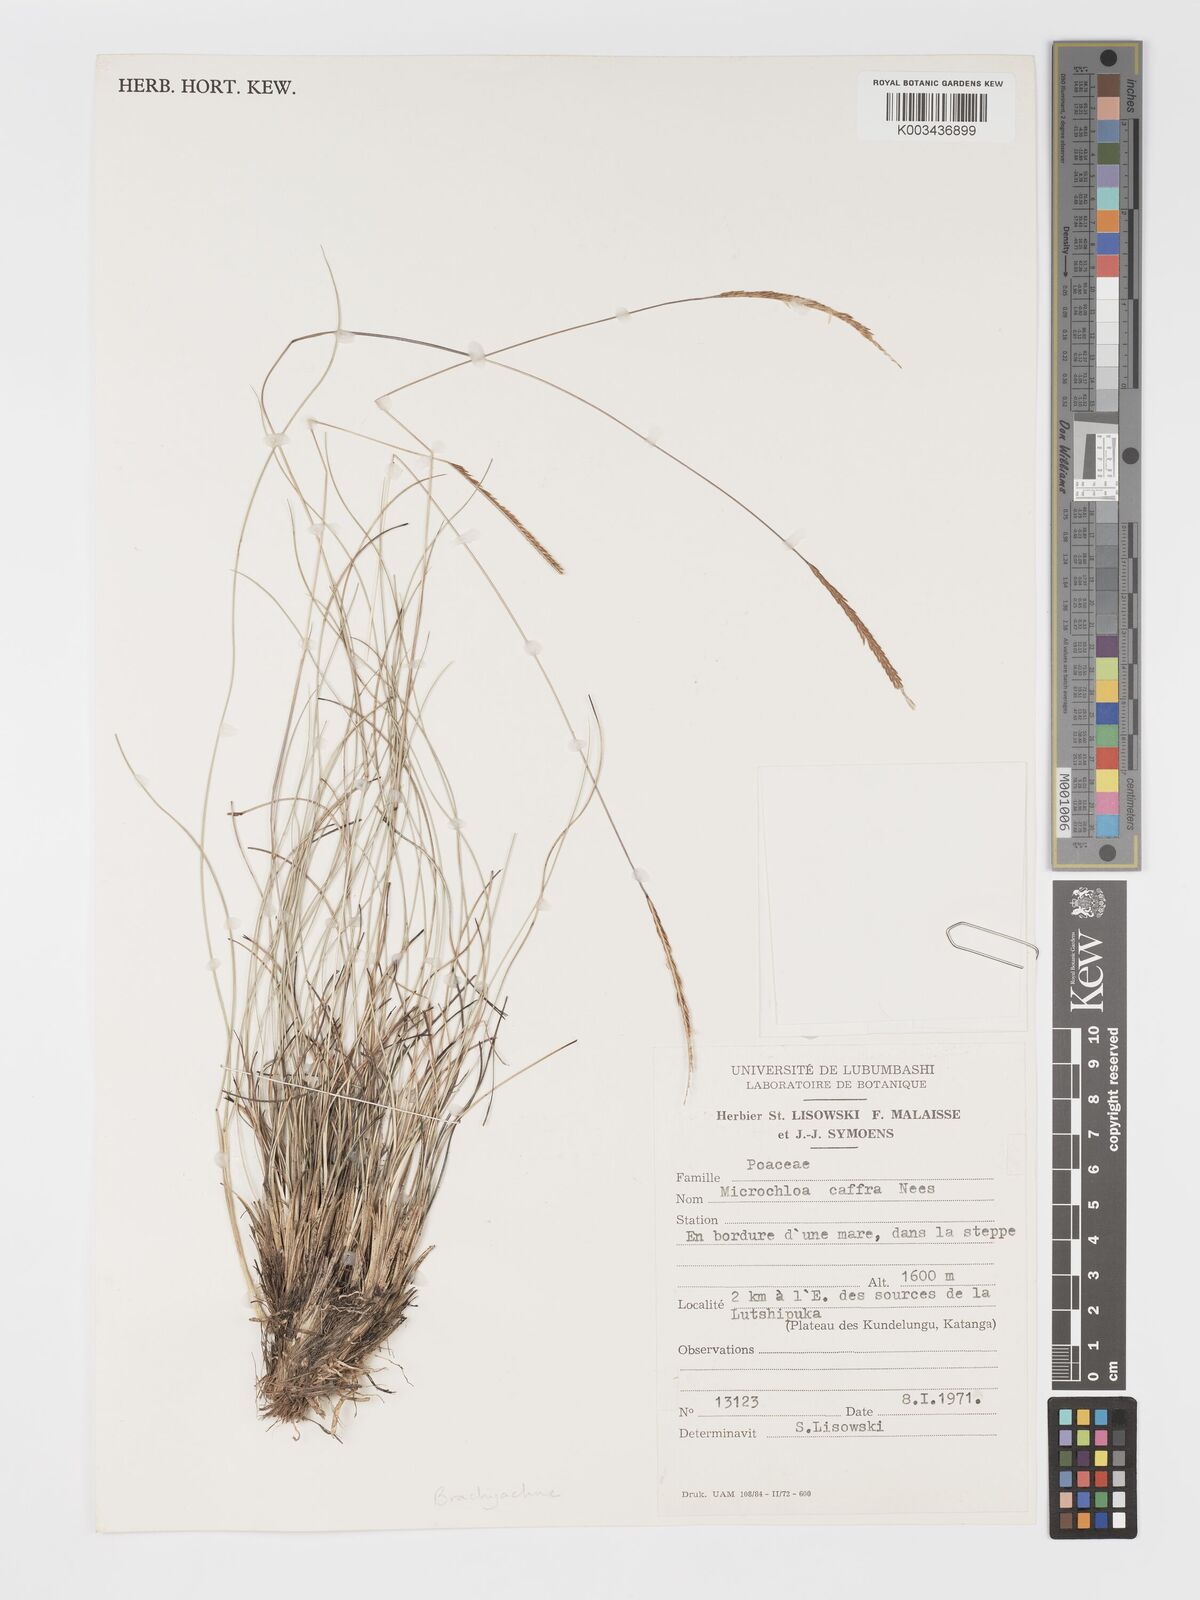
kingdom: Plantae
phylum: Tracheophyta
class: Liliopsida
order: Poales
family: Poaceae
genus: Micrachne
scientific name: Micrachne fulva
